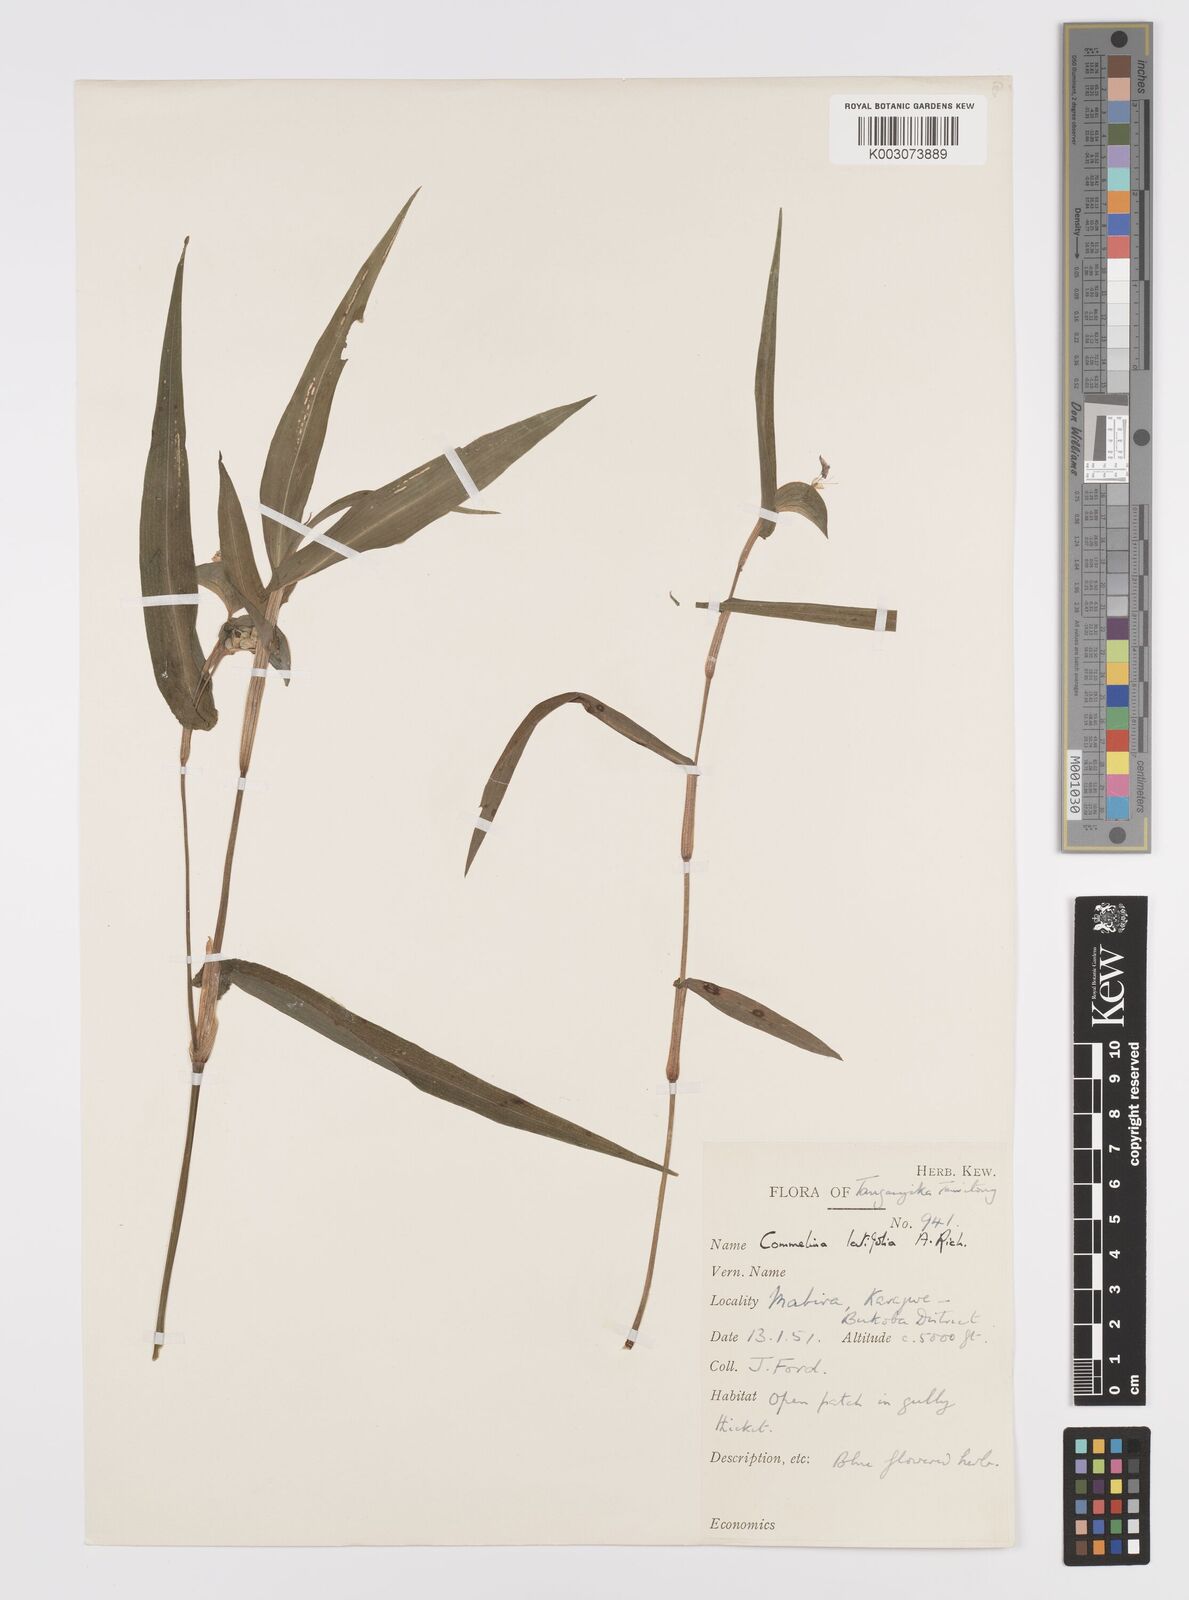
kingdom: Plantae
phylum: Tracheophyta
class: Liliopsida
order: Commelinales
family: Commelinaceae
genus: Commelina
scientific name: Commelina latifolia
